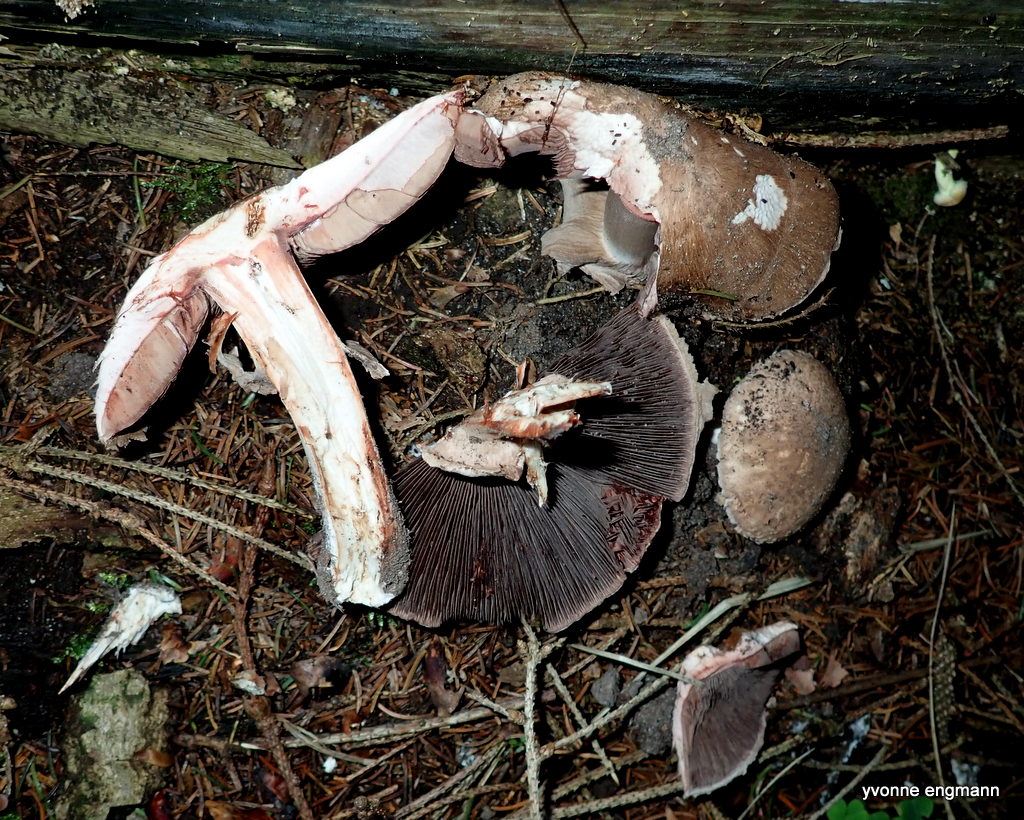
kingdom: Fungi
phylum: Basidiomycota
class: Agaricomycetes
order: Agaricales
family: Agaricaceae
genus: Agaricus
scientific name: Agaricus
